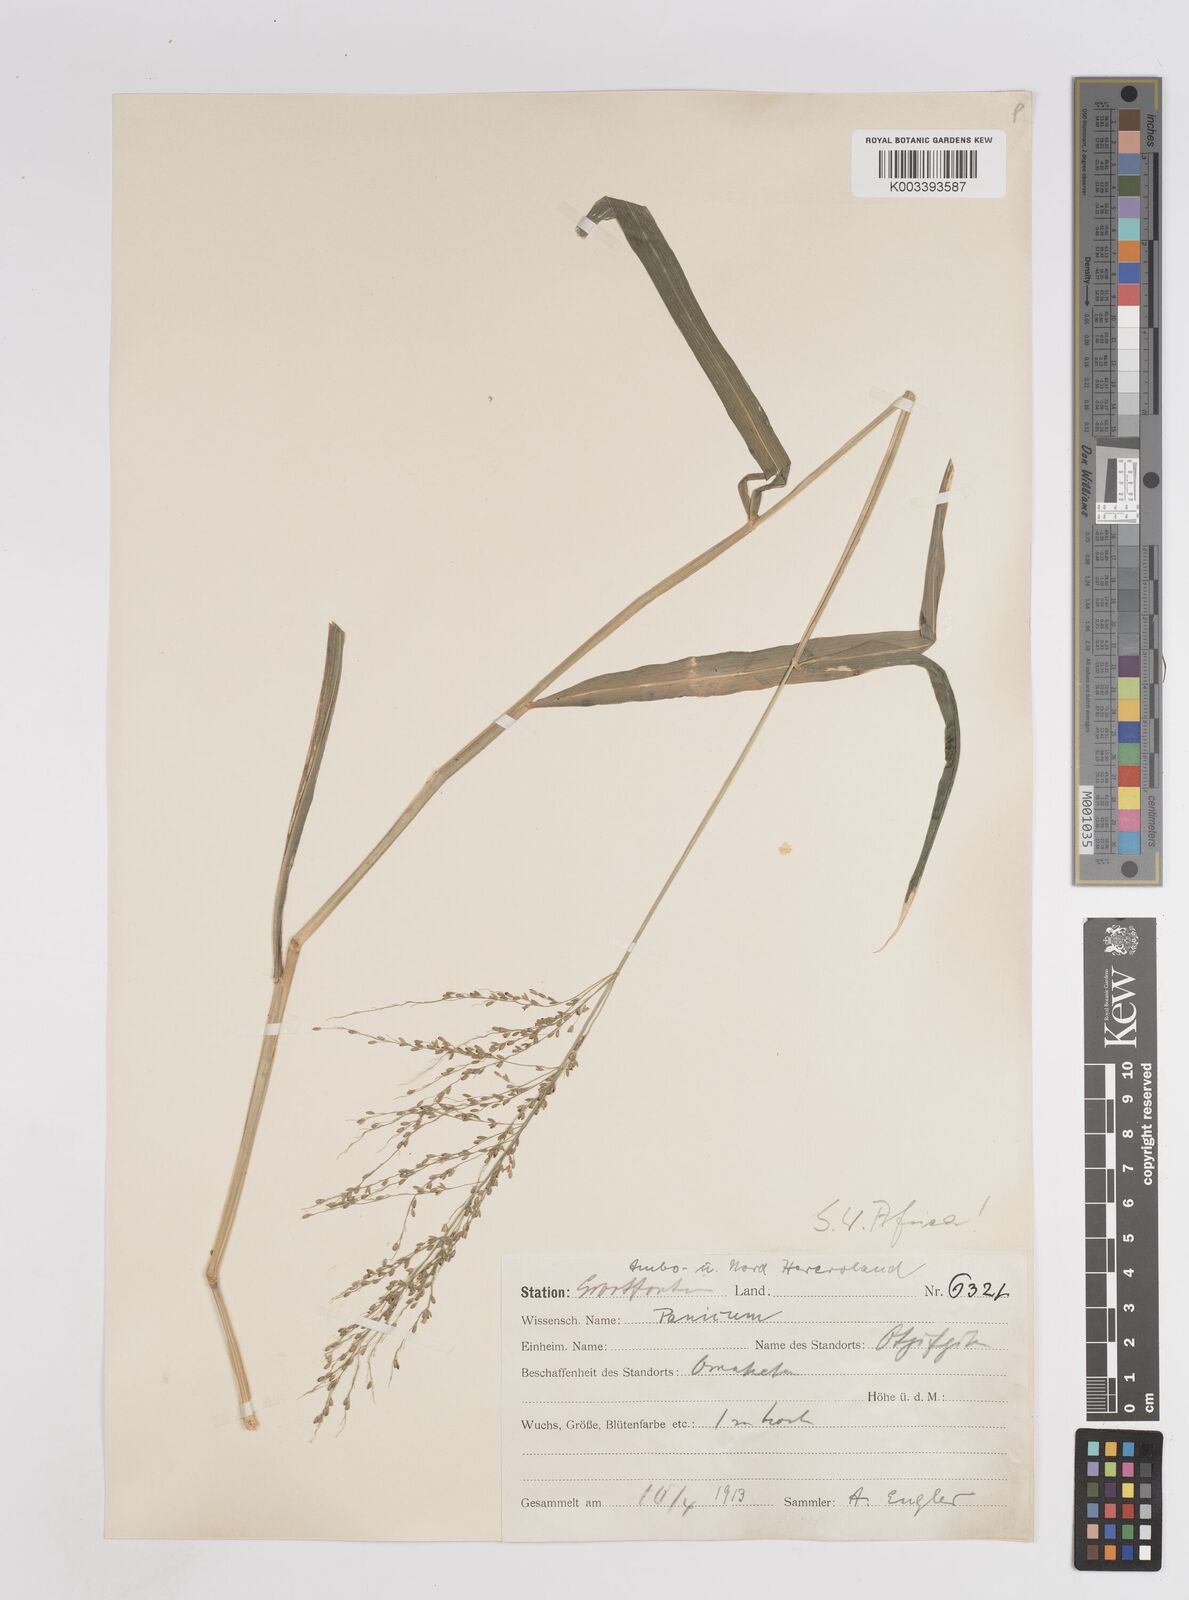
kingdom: Plantae
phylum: Tracheophyta
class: Liliopsida
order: Poales
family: Poaceae
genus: Megathyrsus
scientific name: Megathyrsus maximus
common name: Guineagrass
